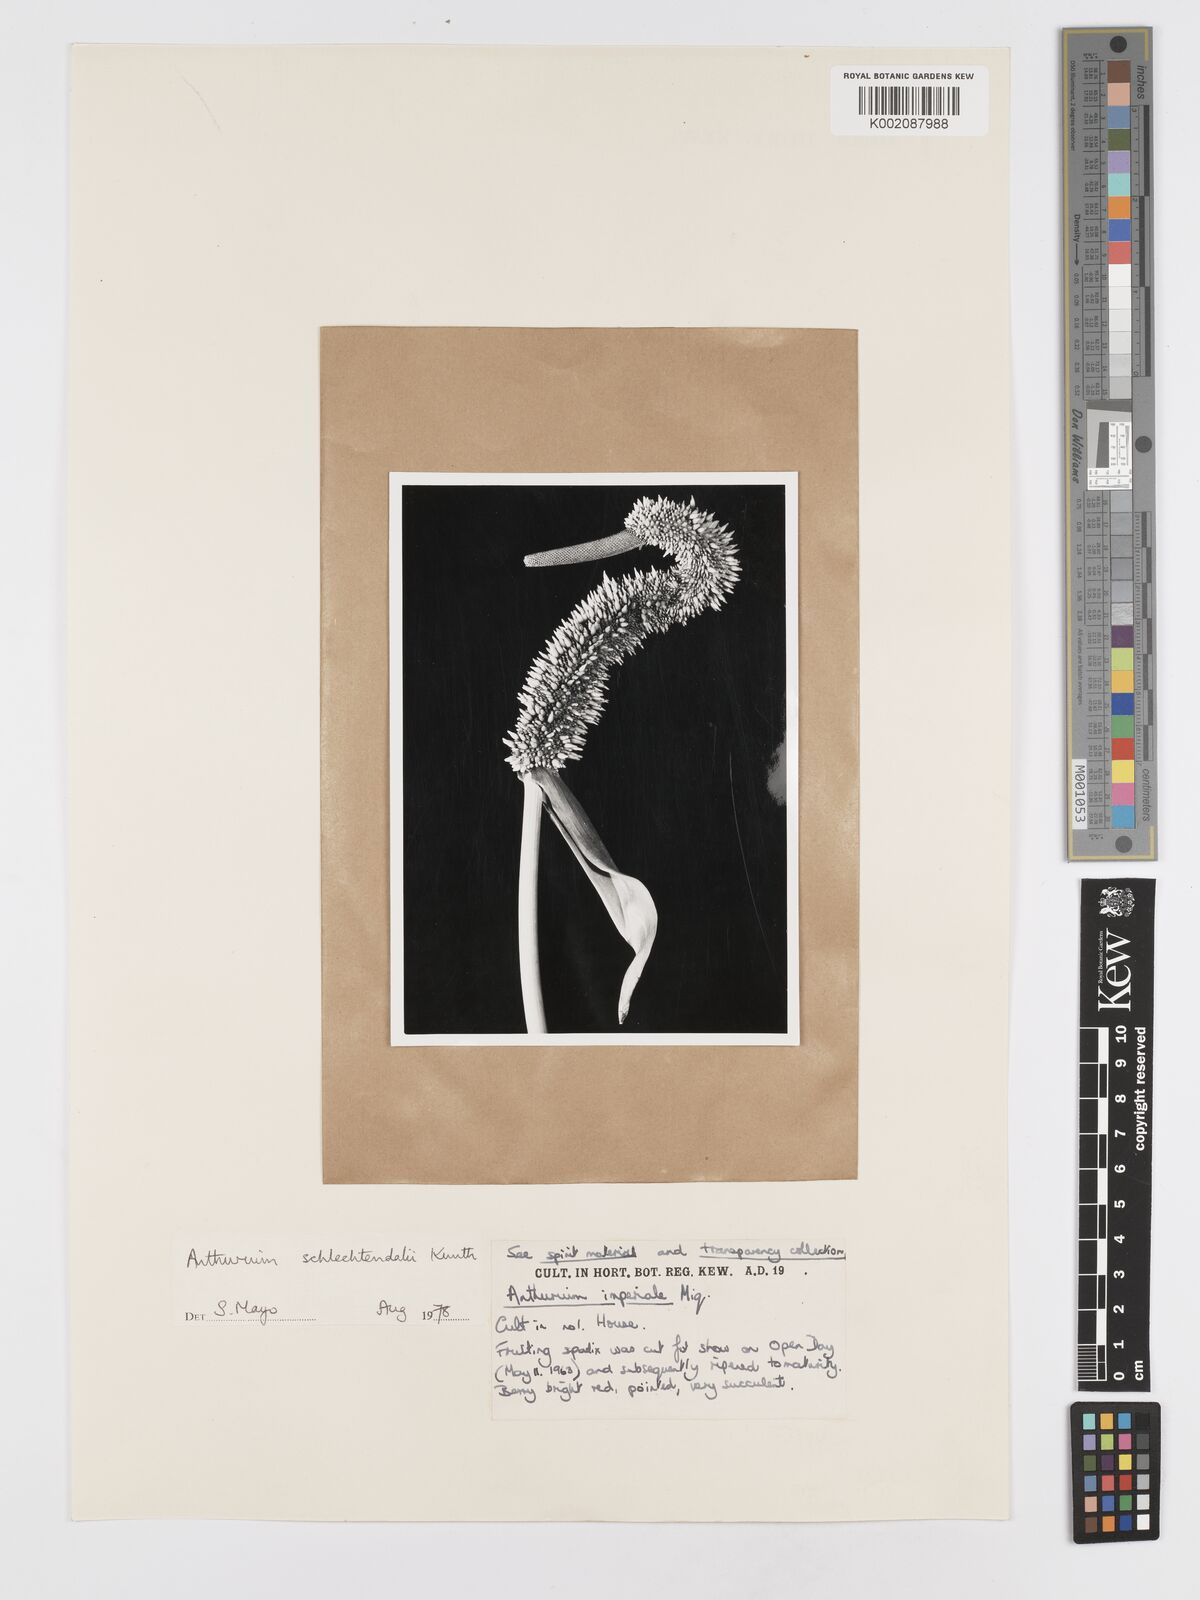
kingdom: Plantae
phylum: Tracheophyta
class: Liliopsida
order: Alismatales
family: Araceae
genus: Anthurium
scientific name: Anthurium schlechtendalii
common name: Laceleaf
